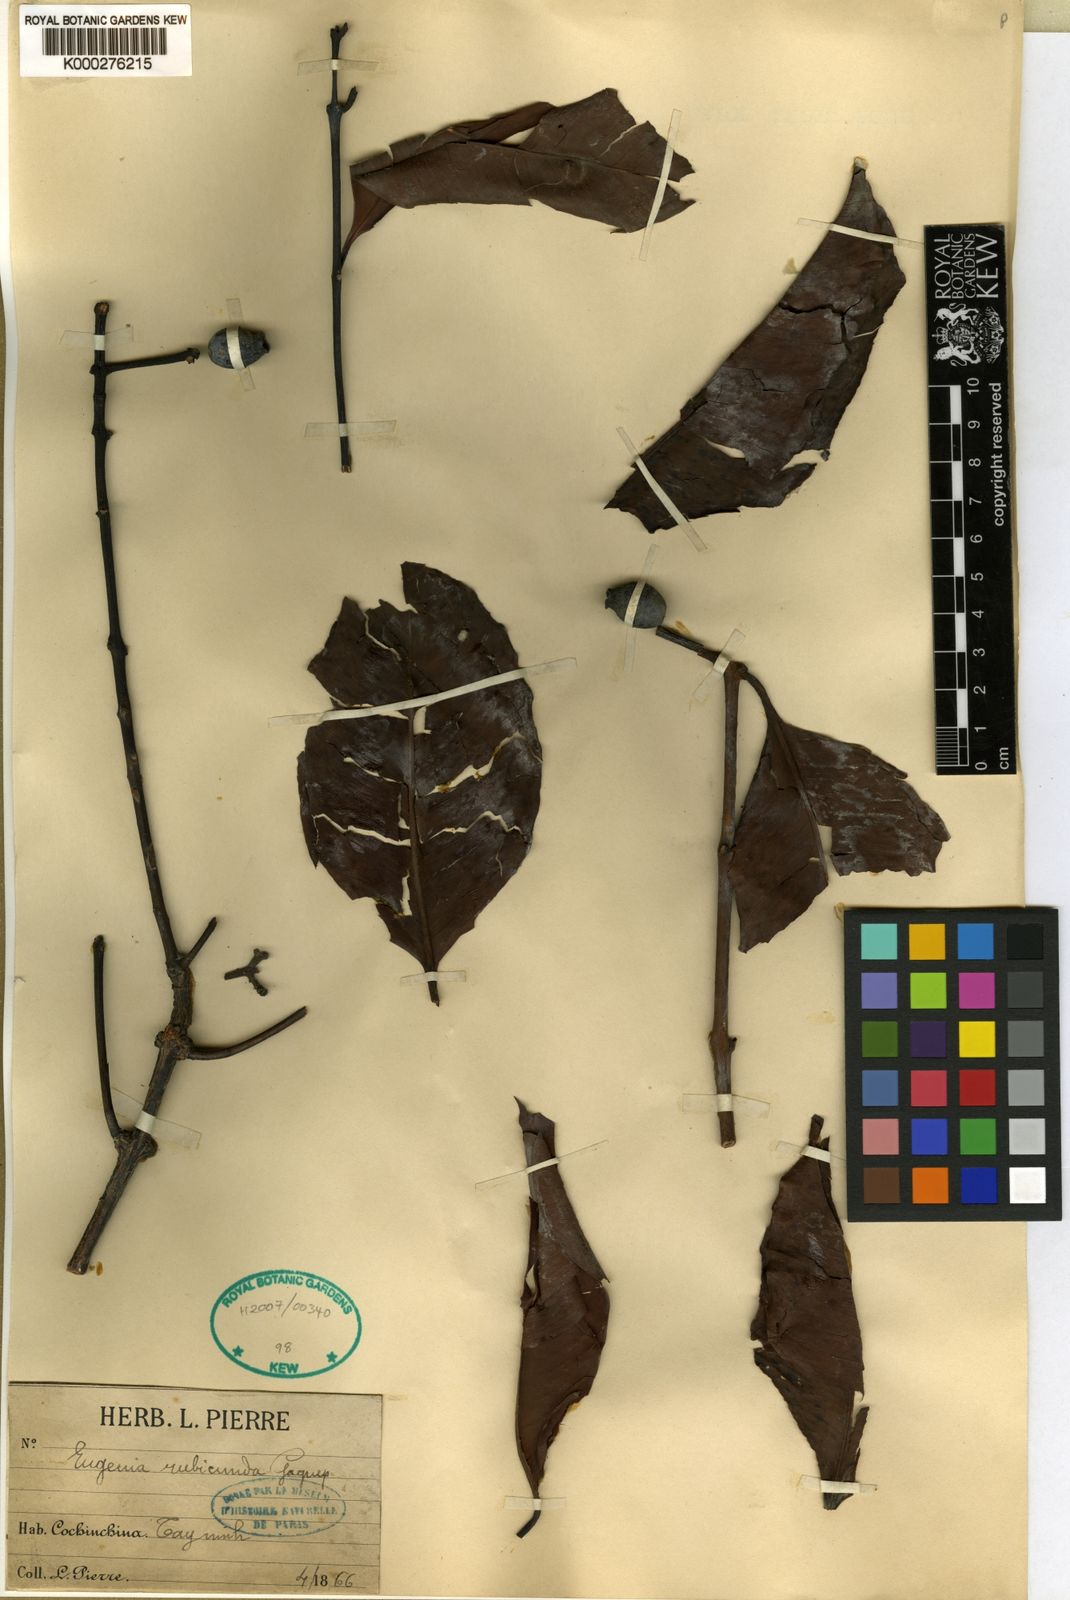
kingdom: Plantae
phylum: Tracheophyta
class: Magnoliopsida
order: Myrtales
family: Myrtaceae
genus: Syzygium
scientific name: Syzygium rubicundum
